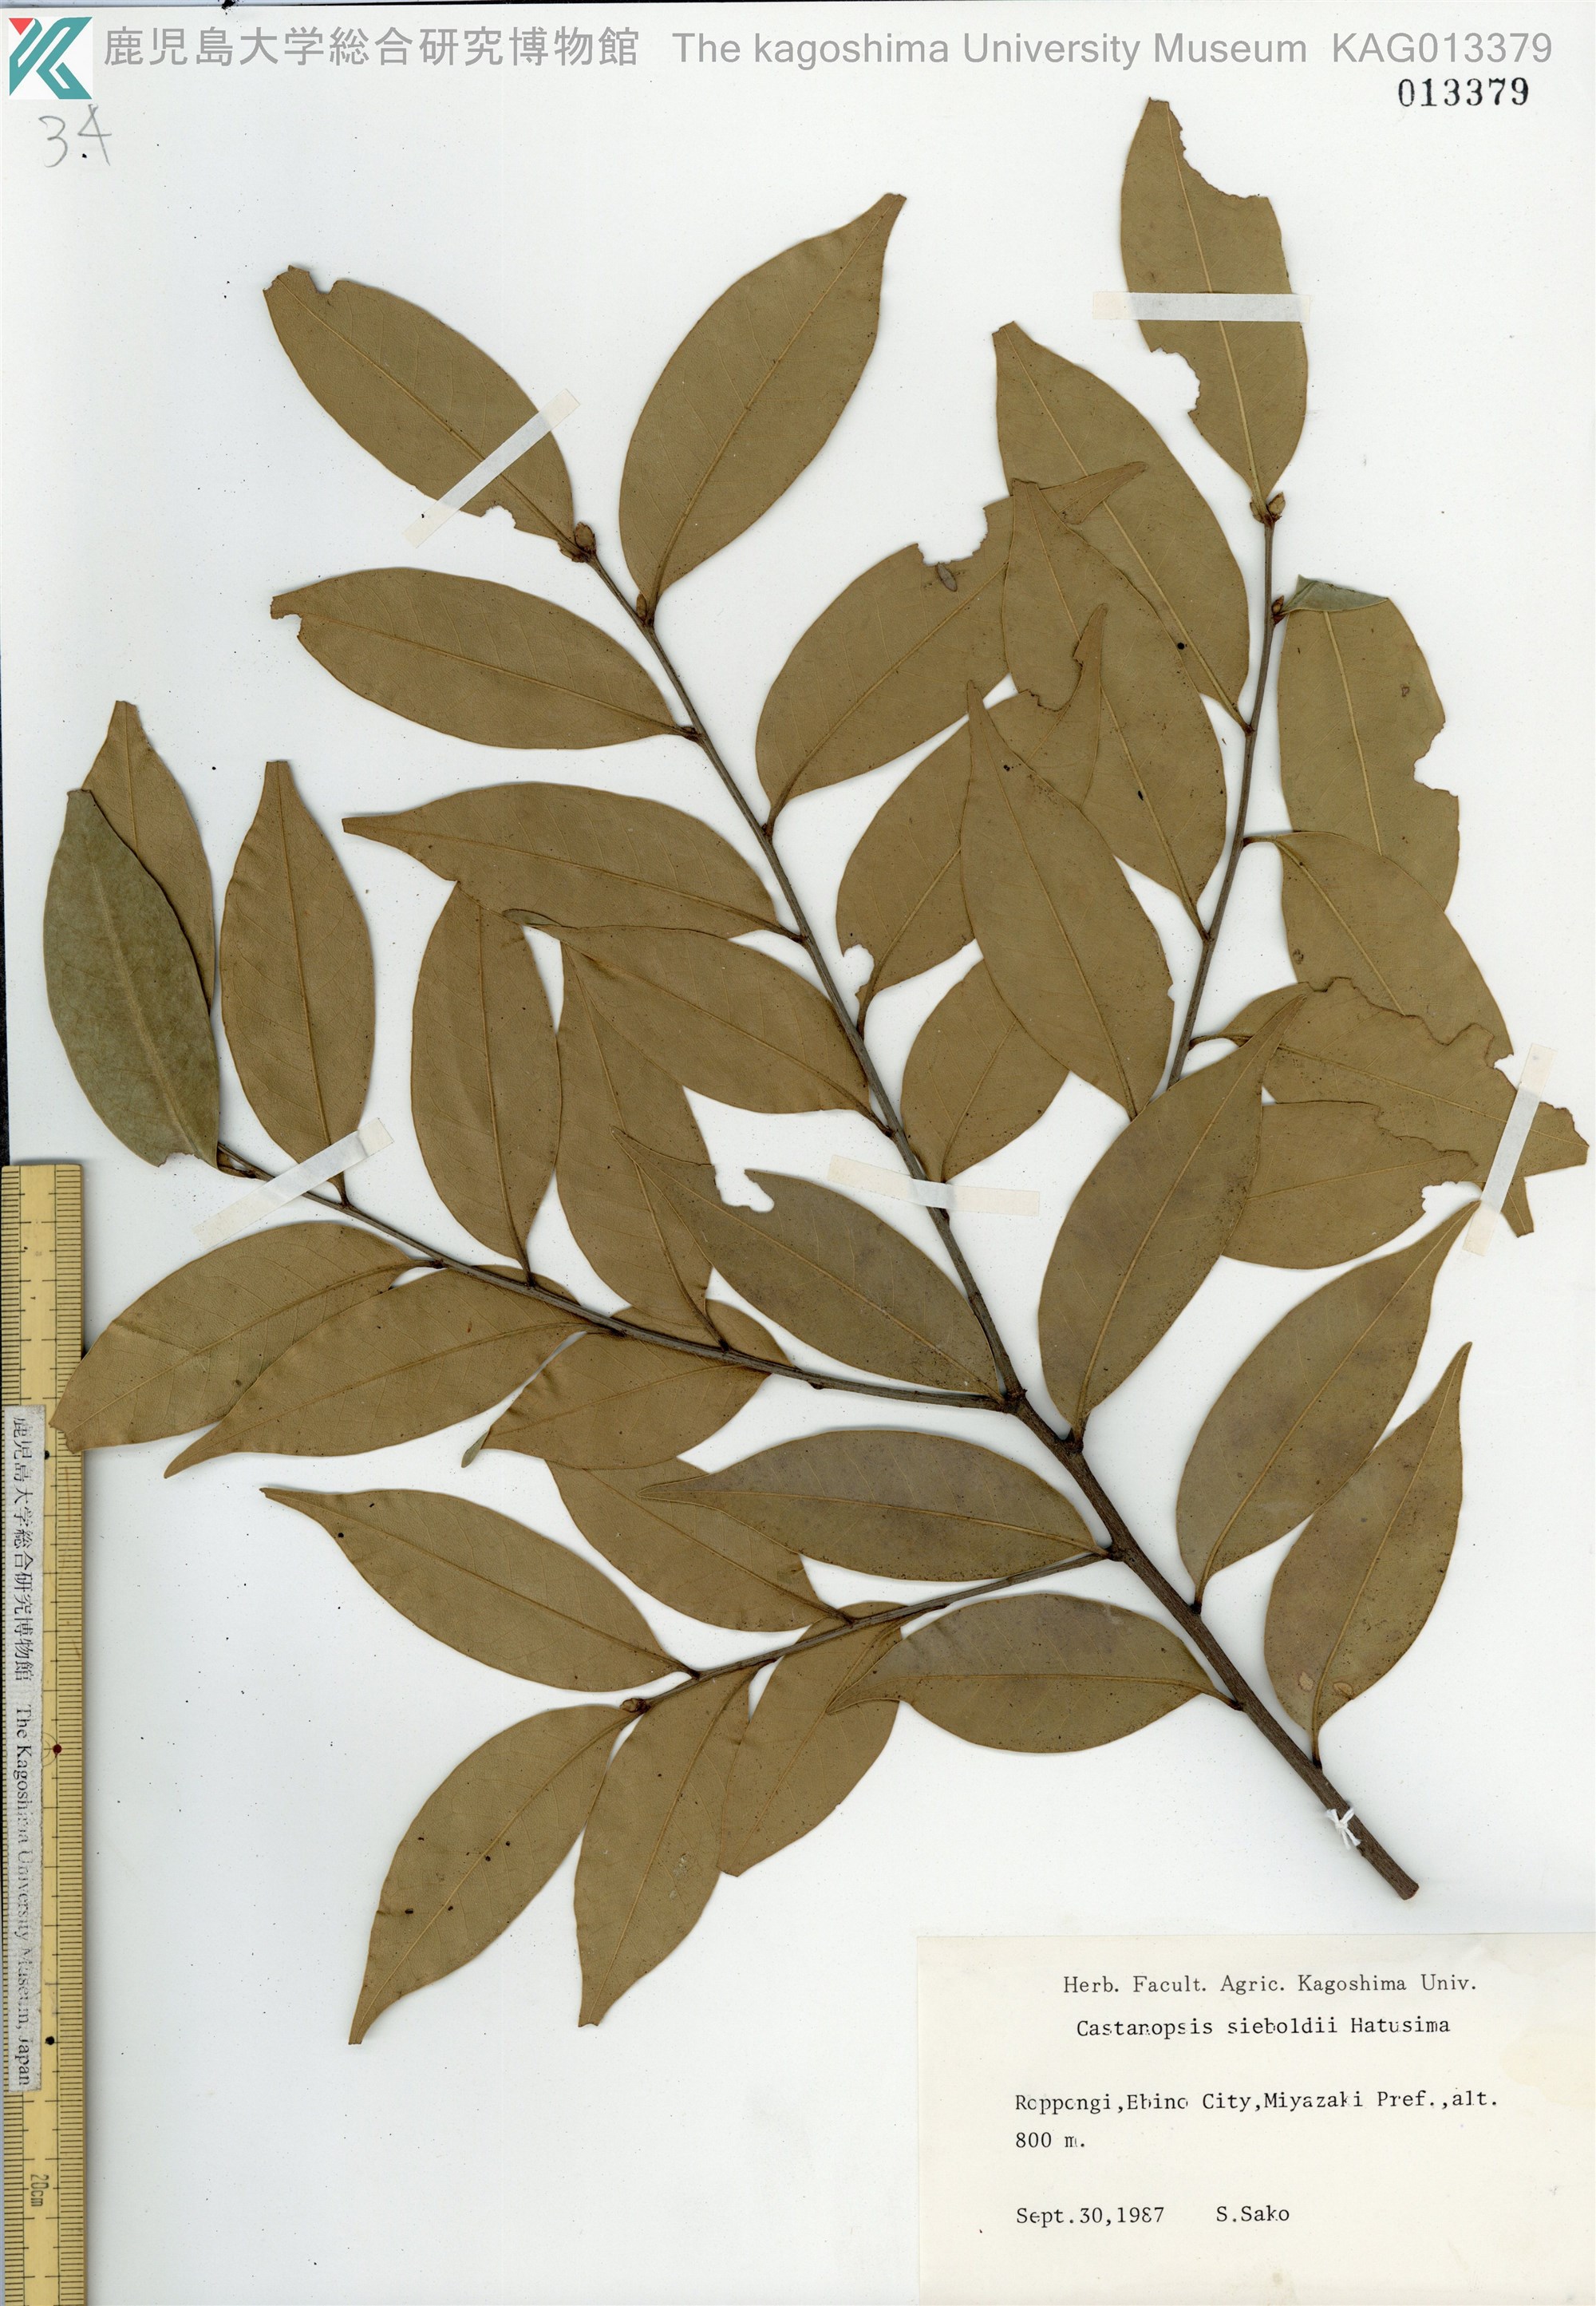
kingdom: Plantae
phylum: Tracheophyta
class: Magnoliopsida
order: Fagales
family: Fagaceae
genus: Castanopsis
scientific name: Castanopsis sieboldii
